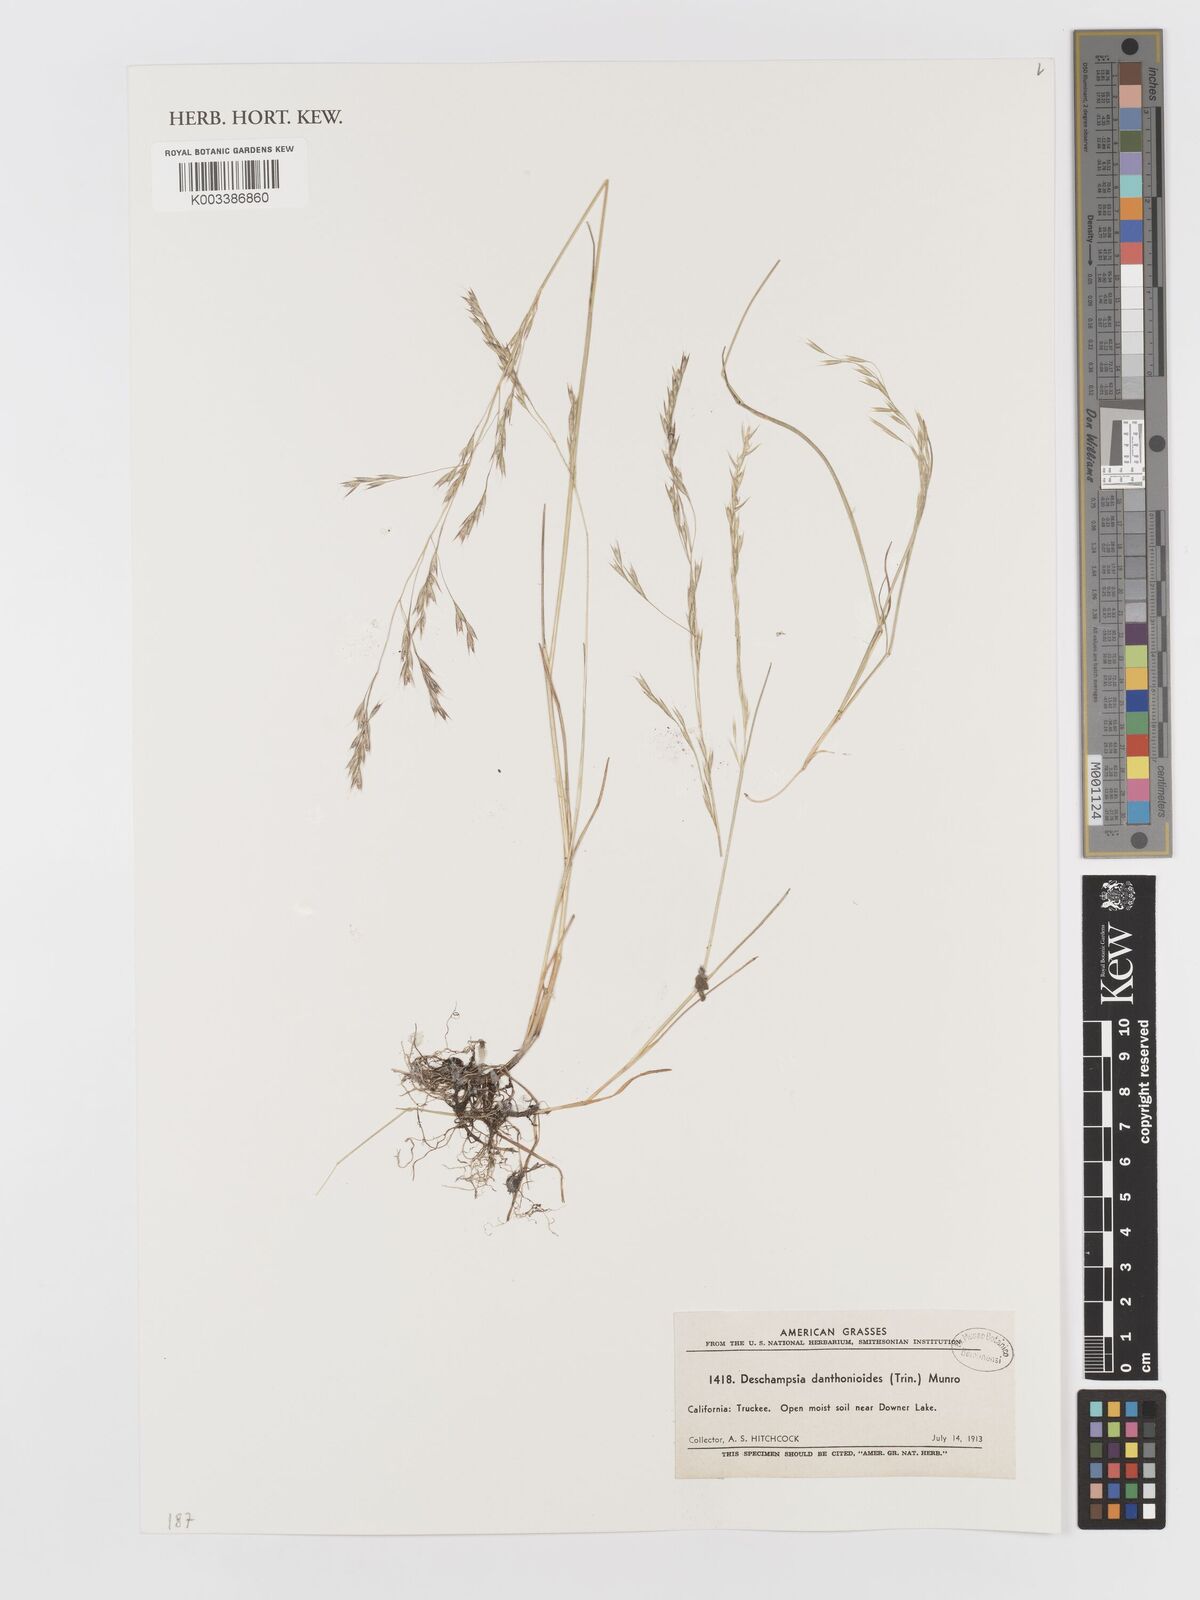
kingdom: Plantae
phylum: Tracheophyta
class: Liliopsida
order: Poales
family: Poaceae
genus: Deschampsia
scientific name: Deschampsia danthonioides
